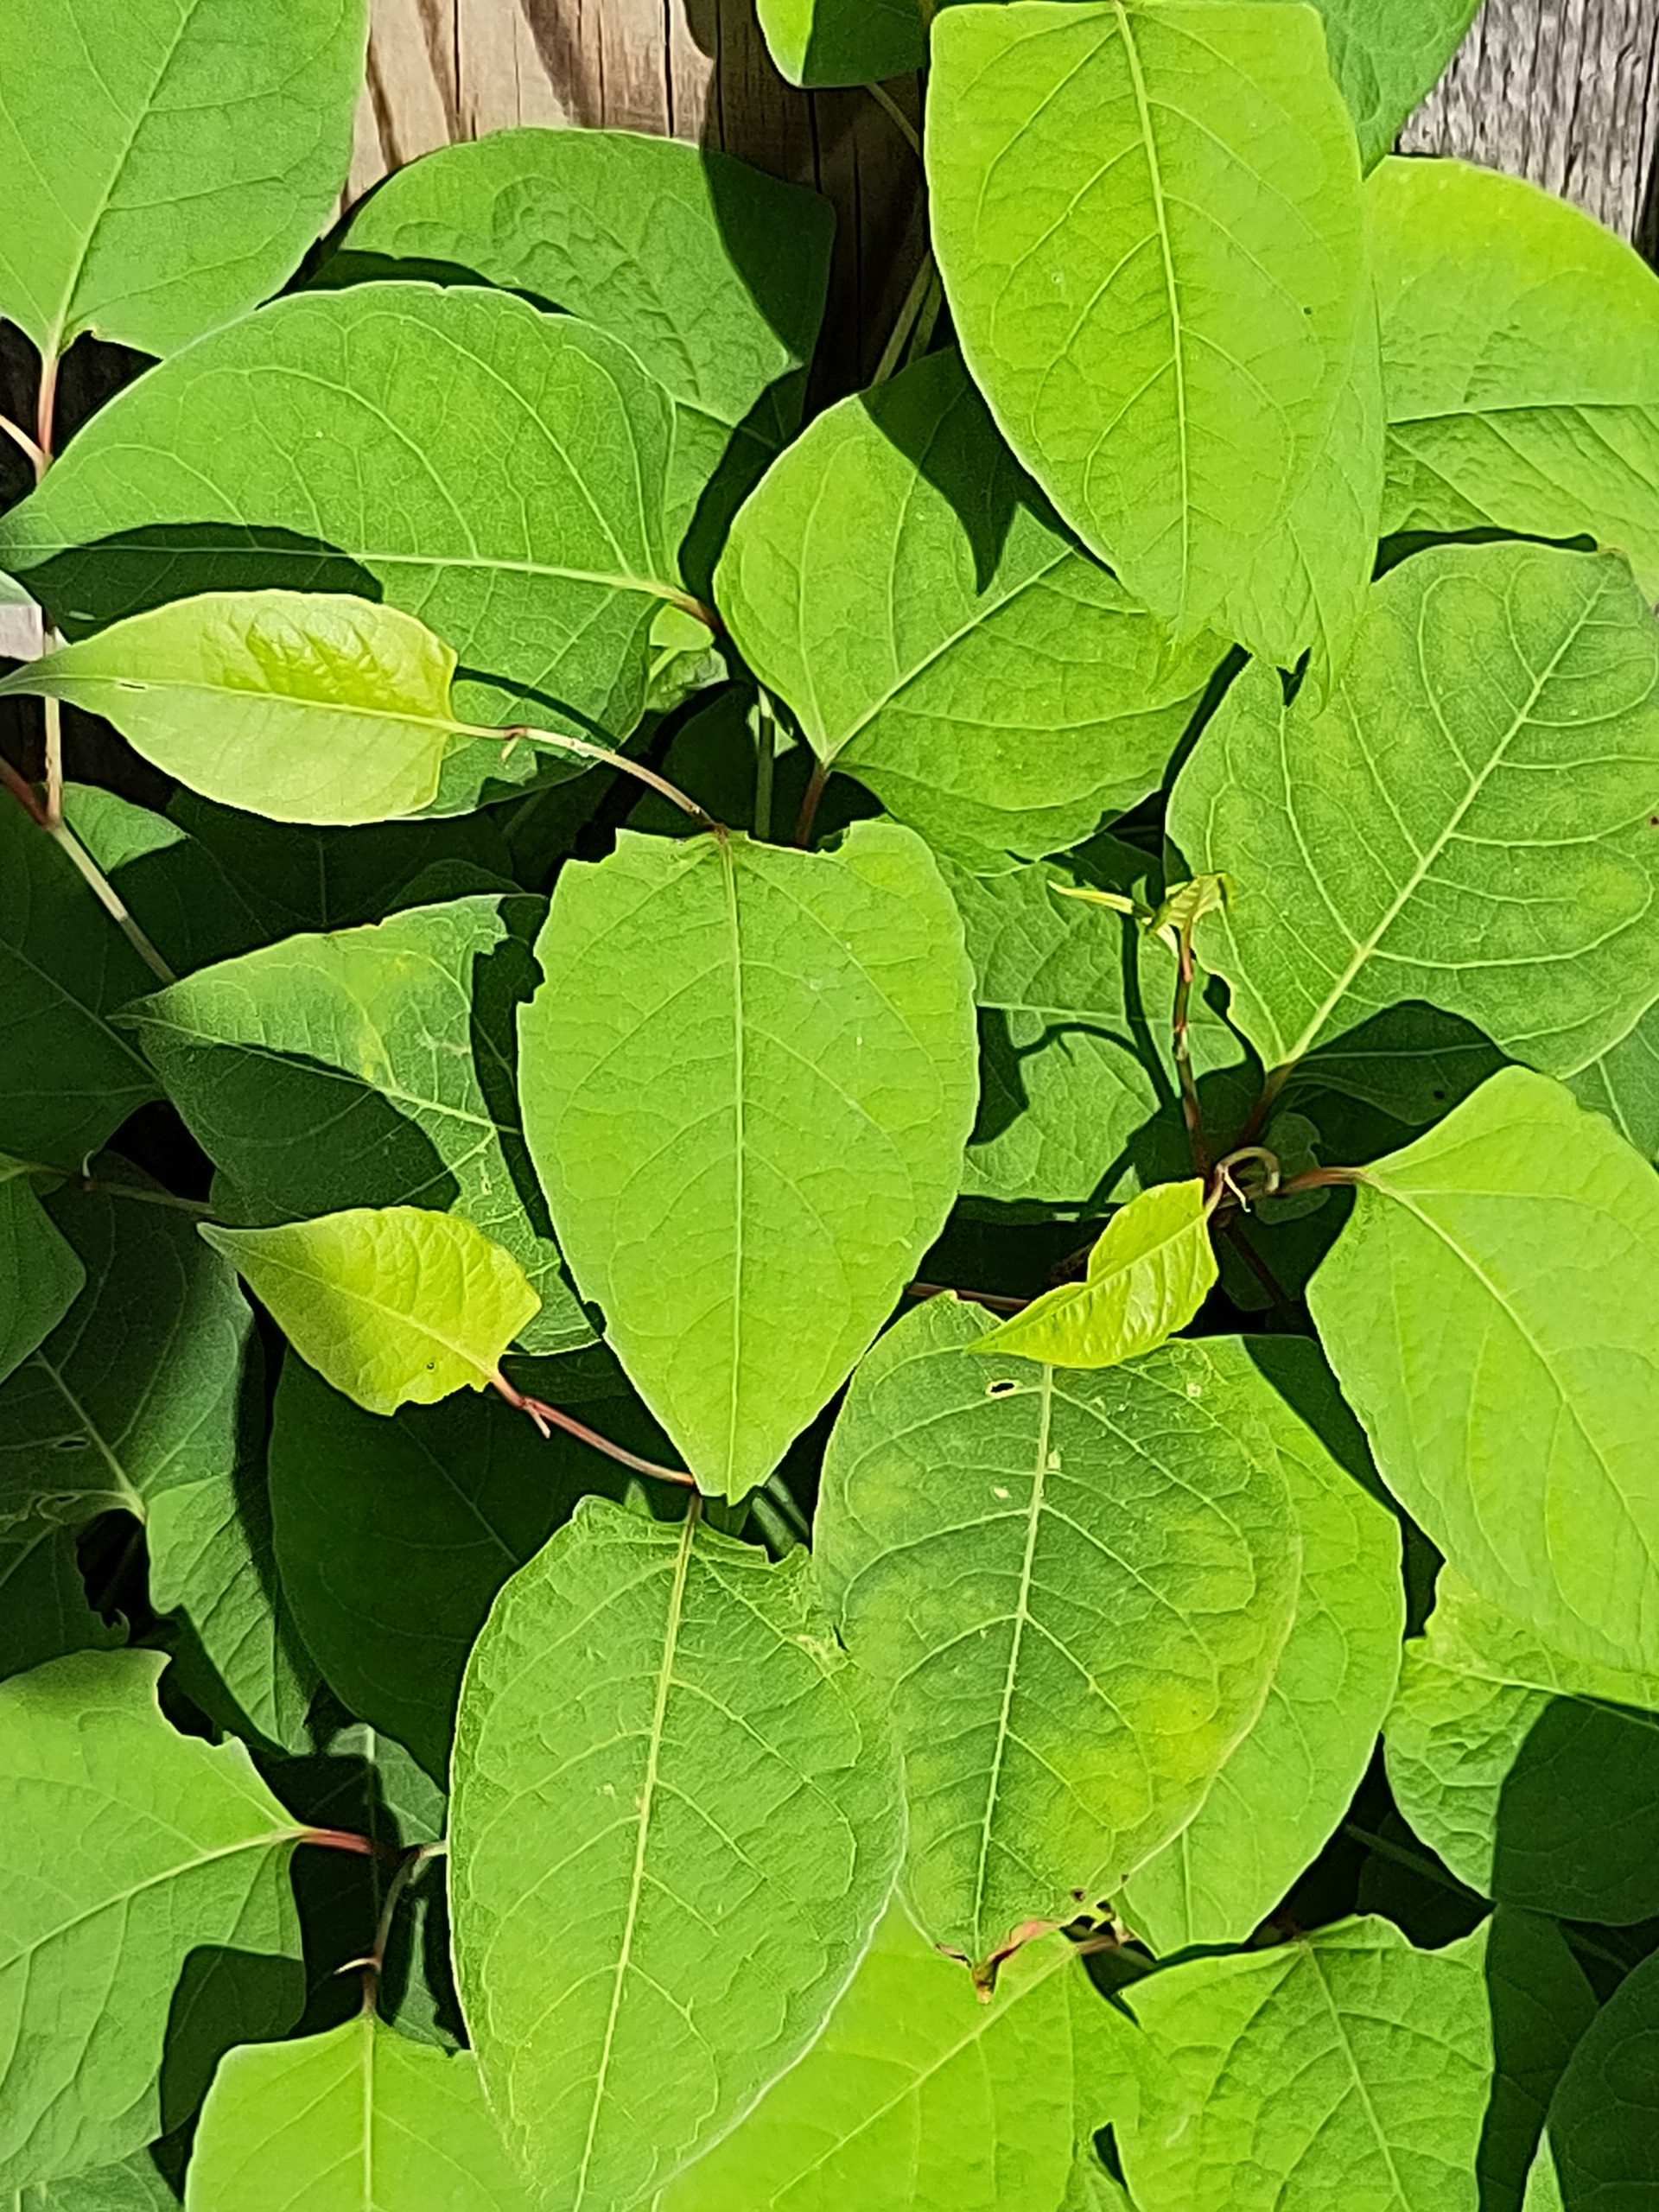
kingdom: Plantae
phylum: Tracheophyta
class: Magnoliopsida
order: Caryophyllales
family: Polygonaceae
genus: Reynoutria
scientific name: Reynoutria japonica
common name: Japan-pileurt
